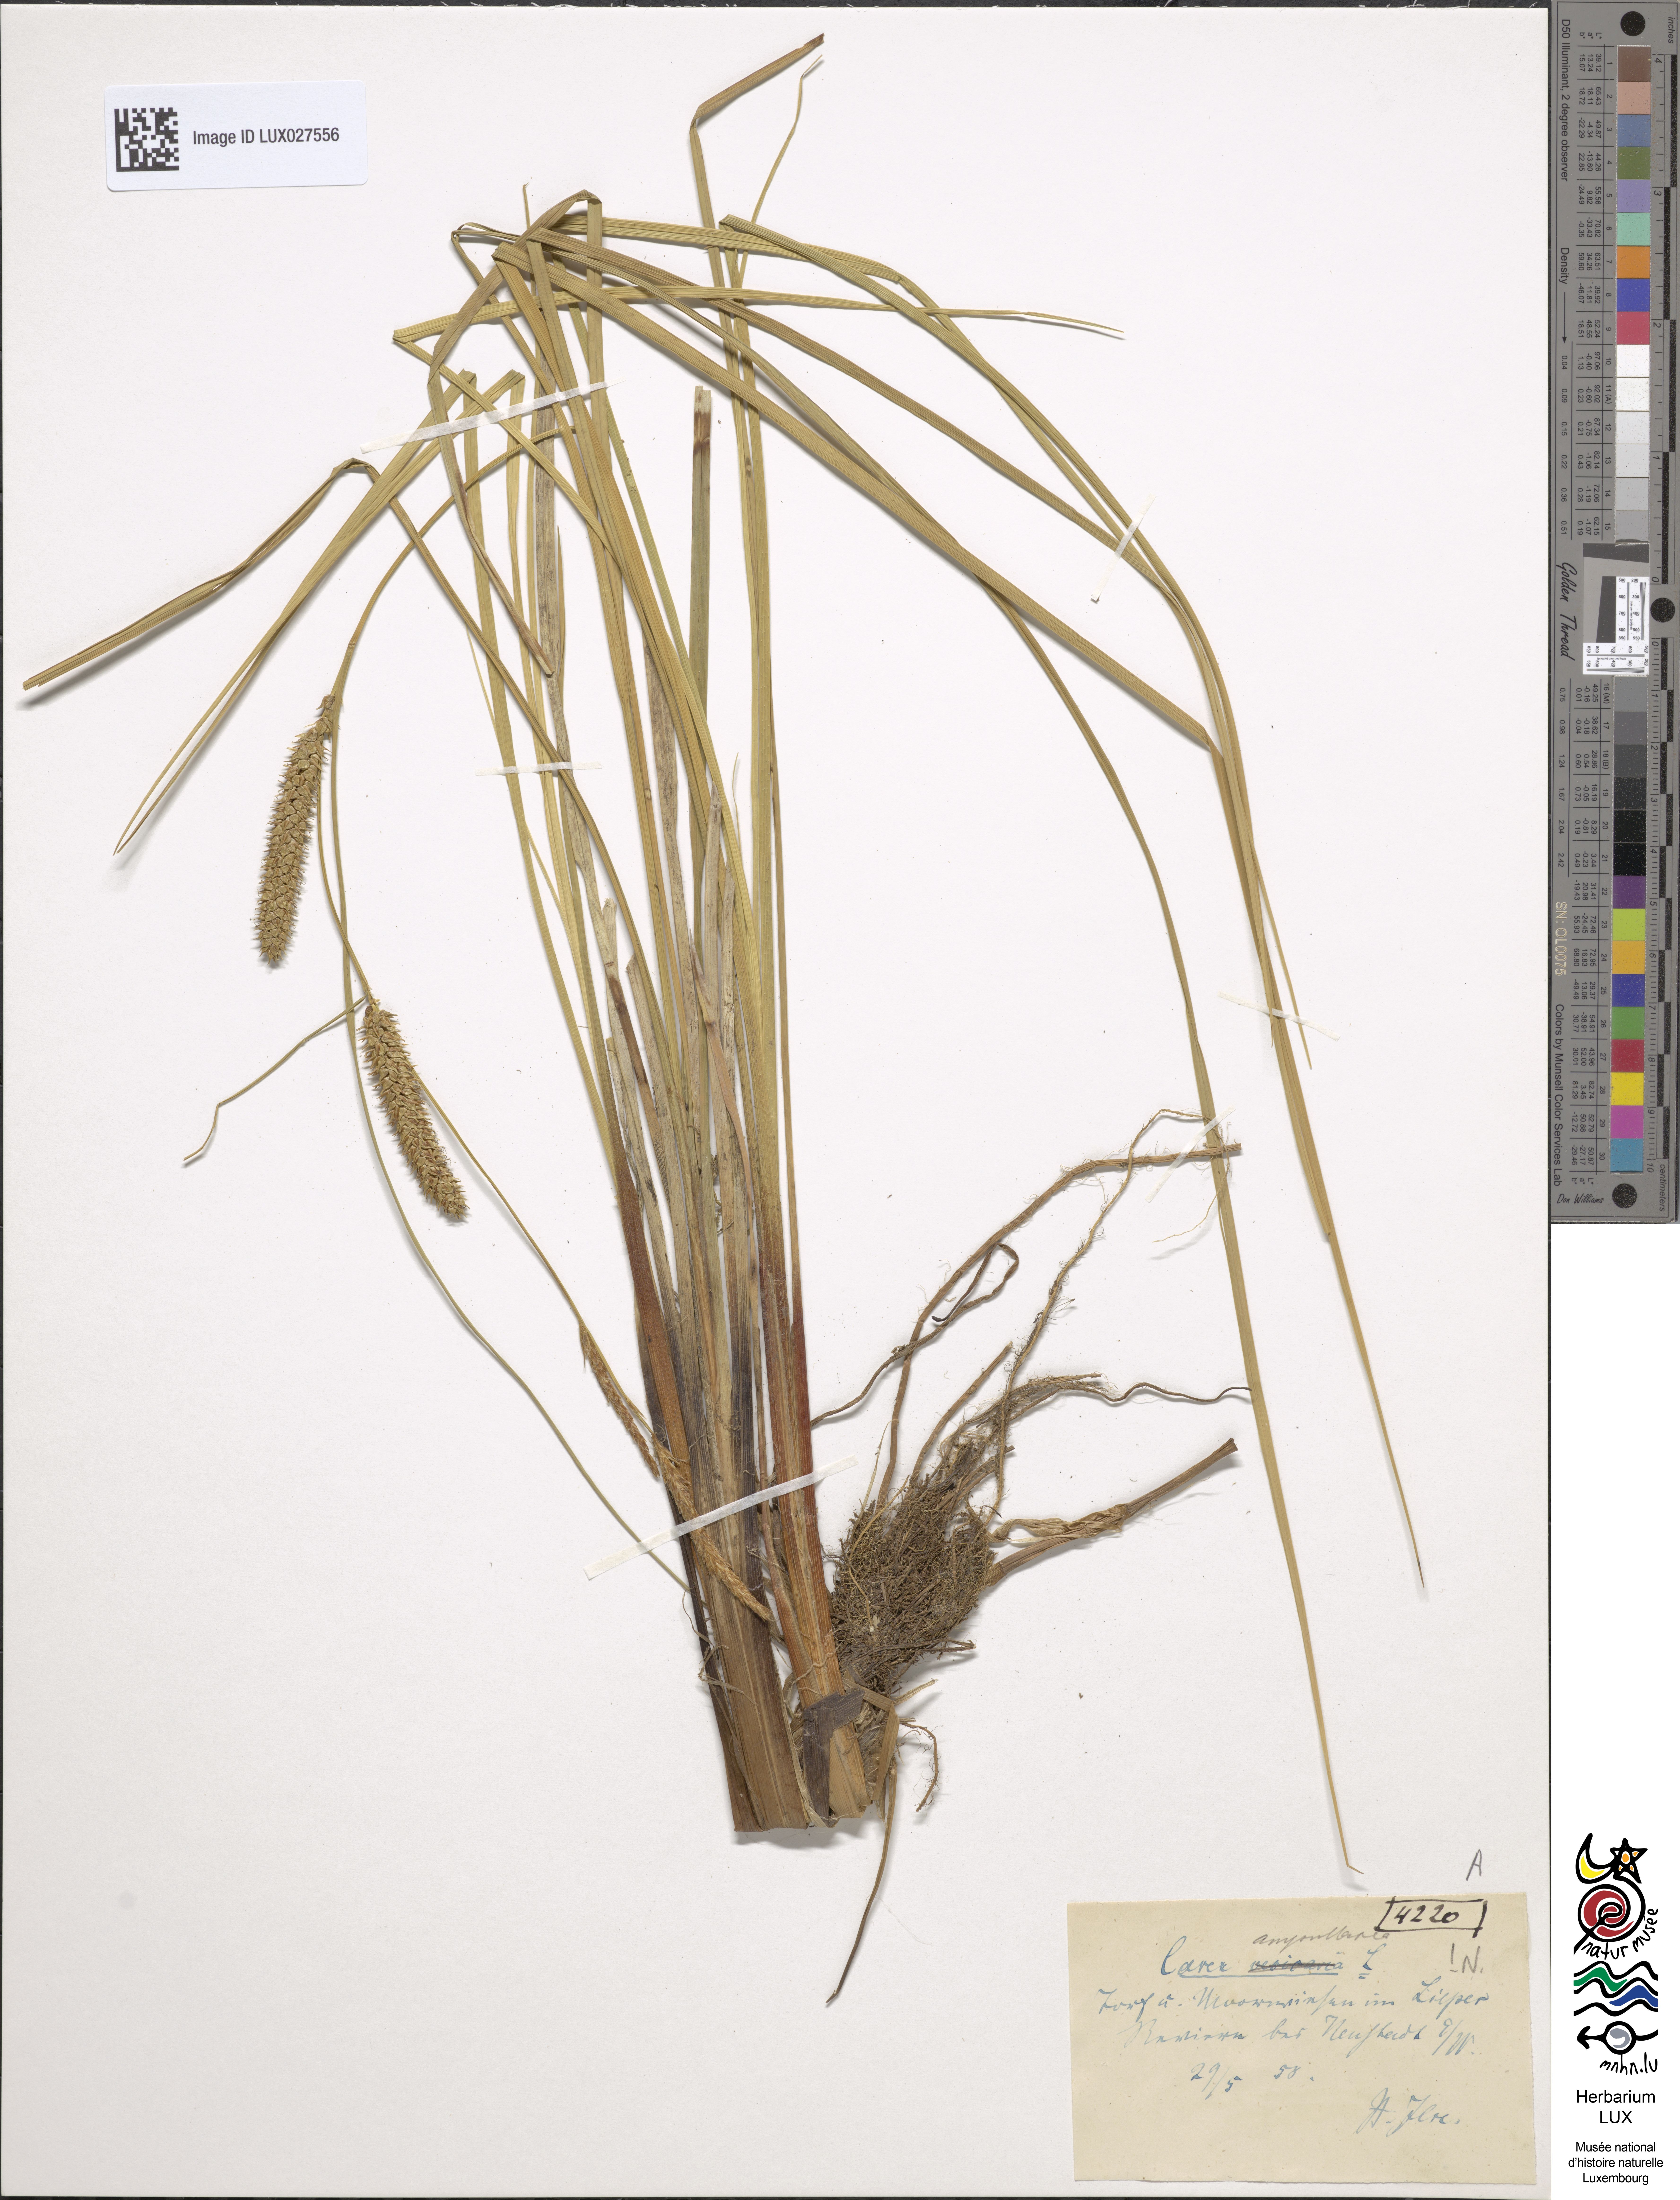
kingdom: Plantae
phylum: Tracheophyta
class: Liliopsida
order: Poales
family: Cyperaceae
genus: Carex
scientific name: Carex rostrata
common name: Bottle sedge
